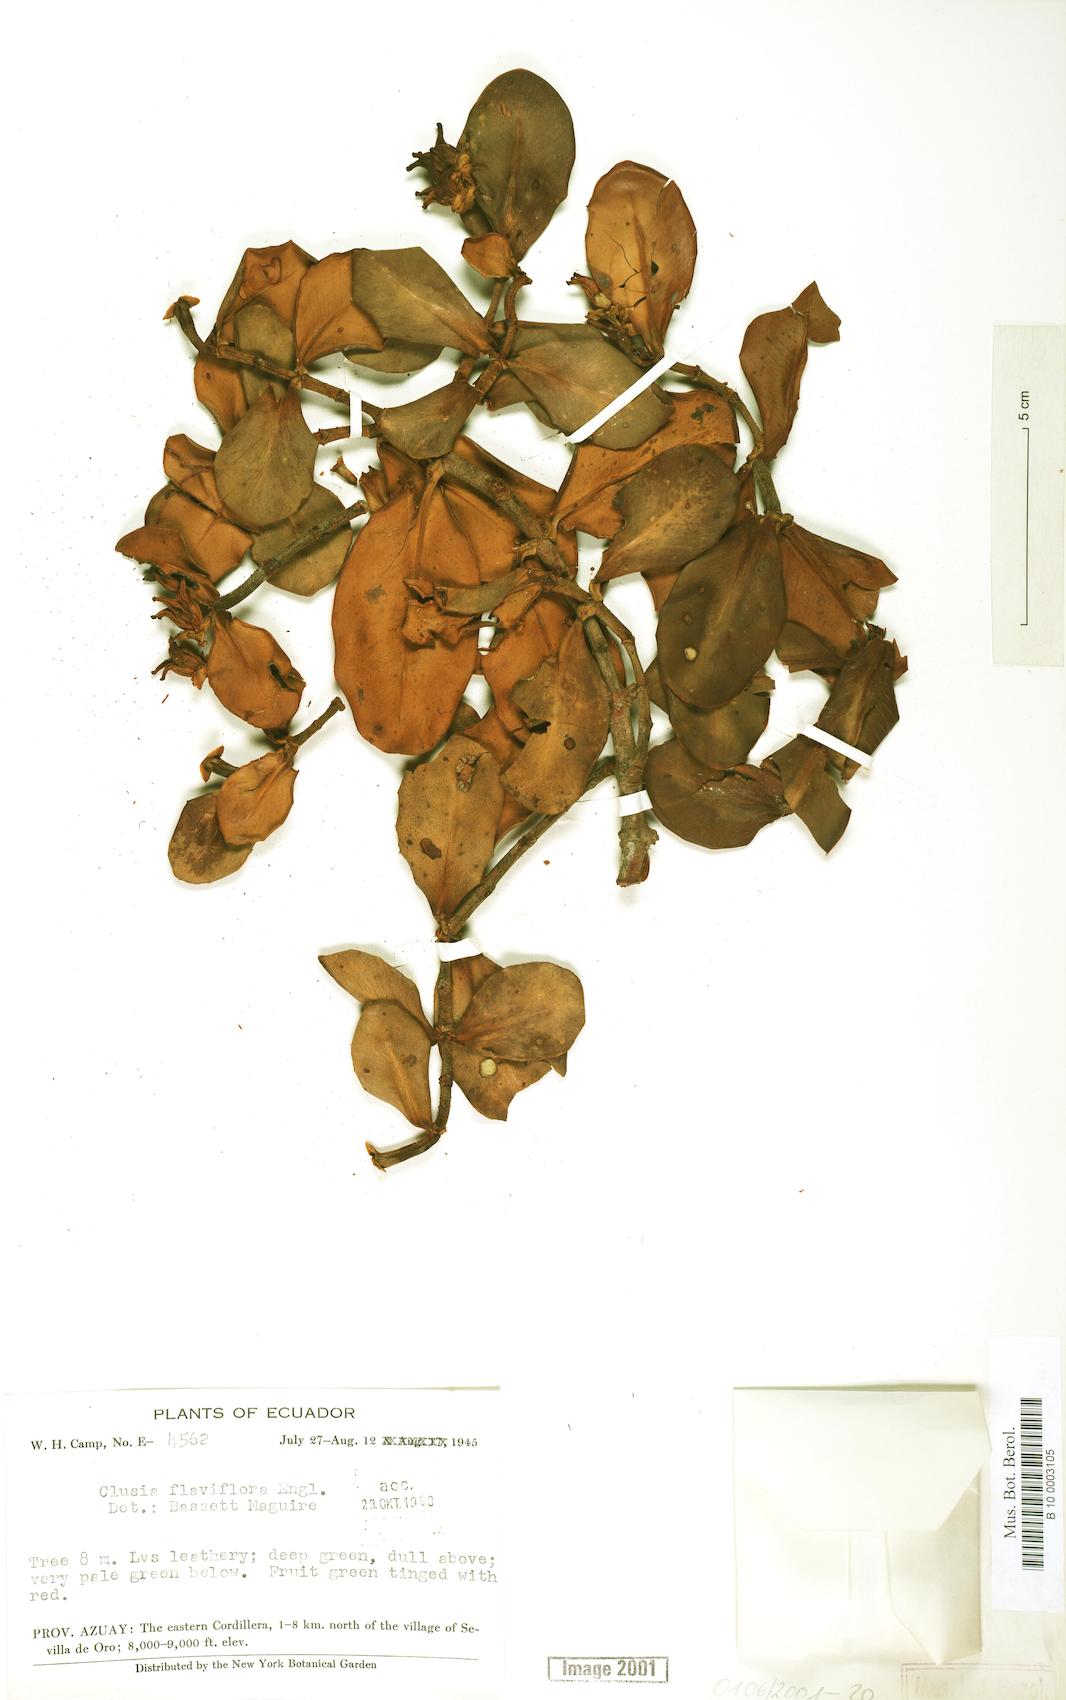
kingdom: Plantae
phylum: Tracheophyta
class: Magnoliopsida
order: Malpighiales
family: Clusiaceae
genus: Clusia
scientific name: Clusia sphaerocarpa
